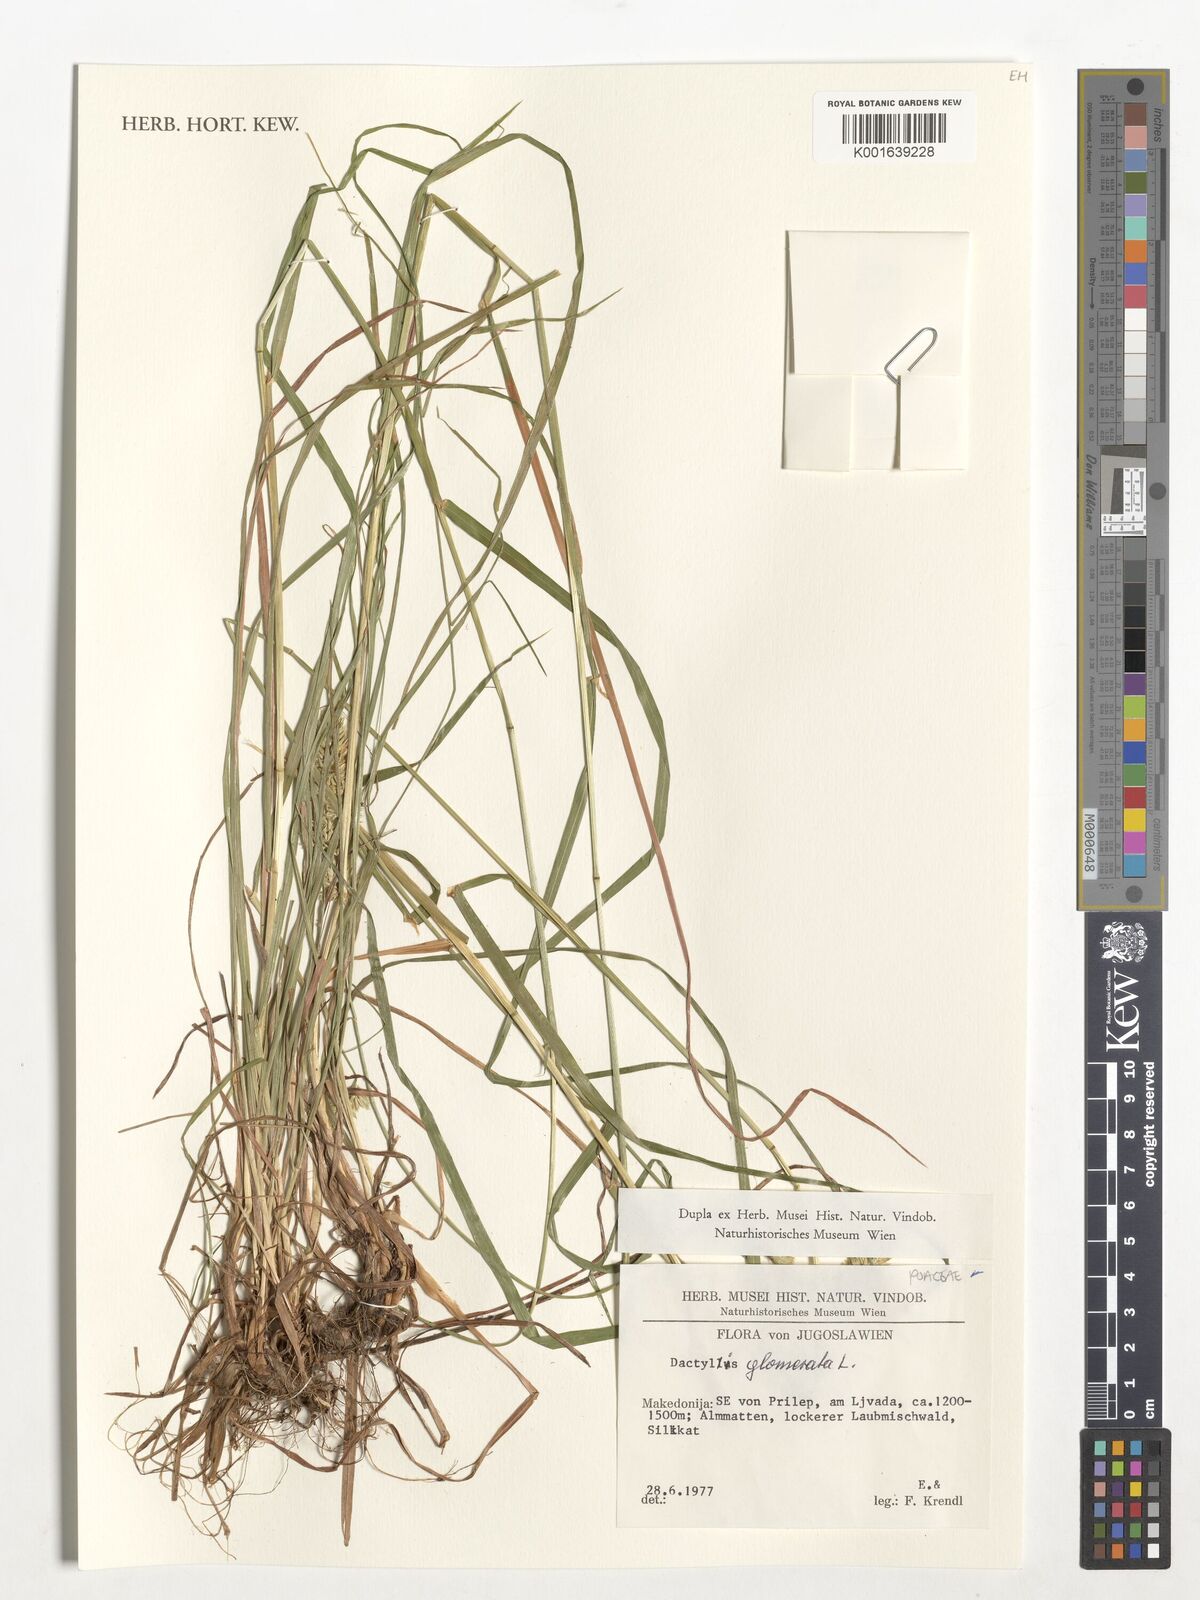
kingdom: Plantae
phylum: Tracheophyta
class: Liliopsida
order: Poales
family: Poaceae
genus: Dactylis
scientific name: Dactylis glomerata
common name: Orchardgrass
